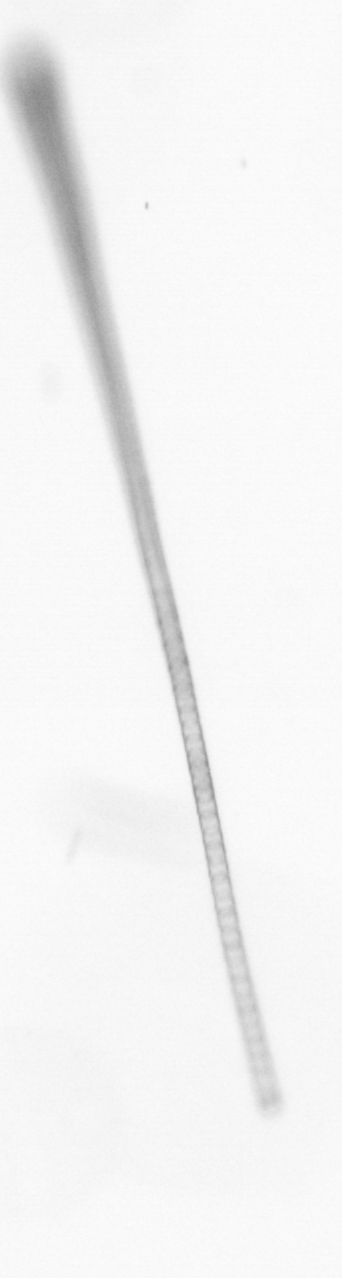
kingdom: Chromista
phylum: Ochrophyta
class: Bacillariophyceae
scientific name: Bacillariophyceae
